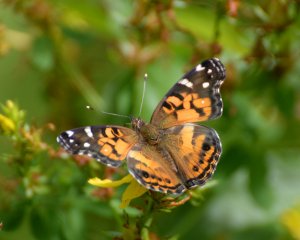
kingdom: Animalia
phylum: Arthropoda
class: Insecta
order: Lepidoptera
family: Nymphalidae
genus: Vanessa
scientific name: Vanessa virginiensis
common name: American Lady
